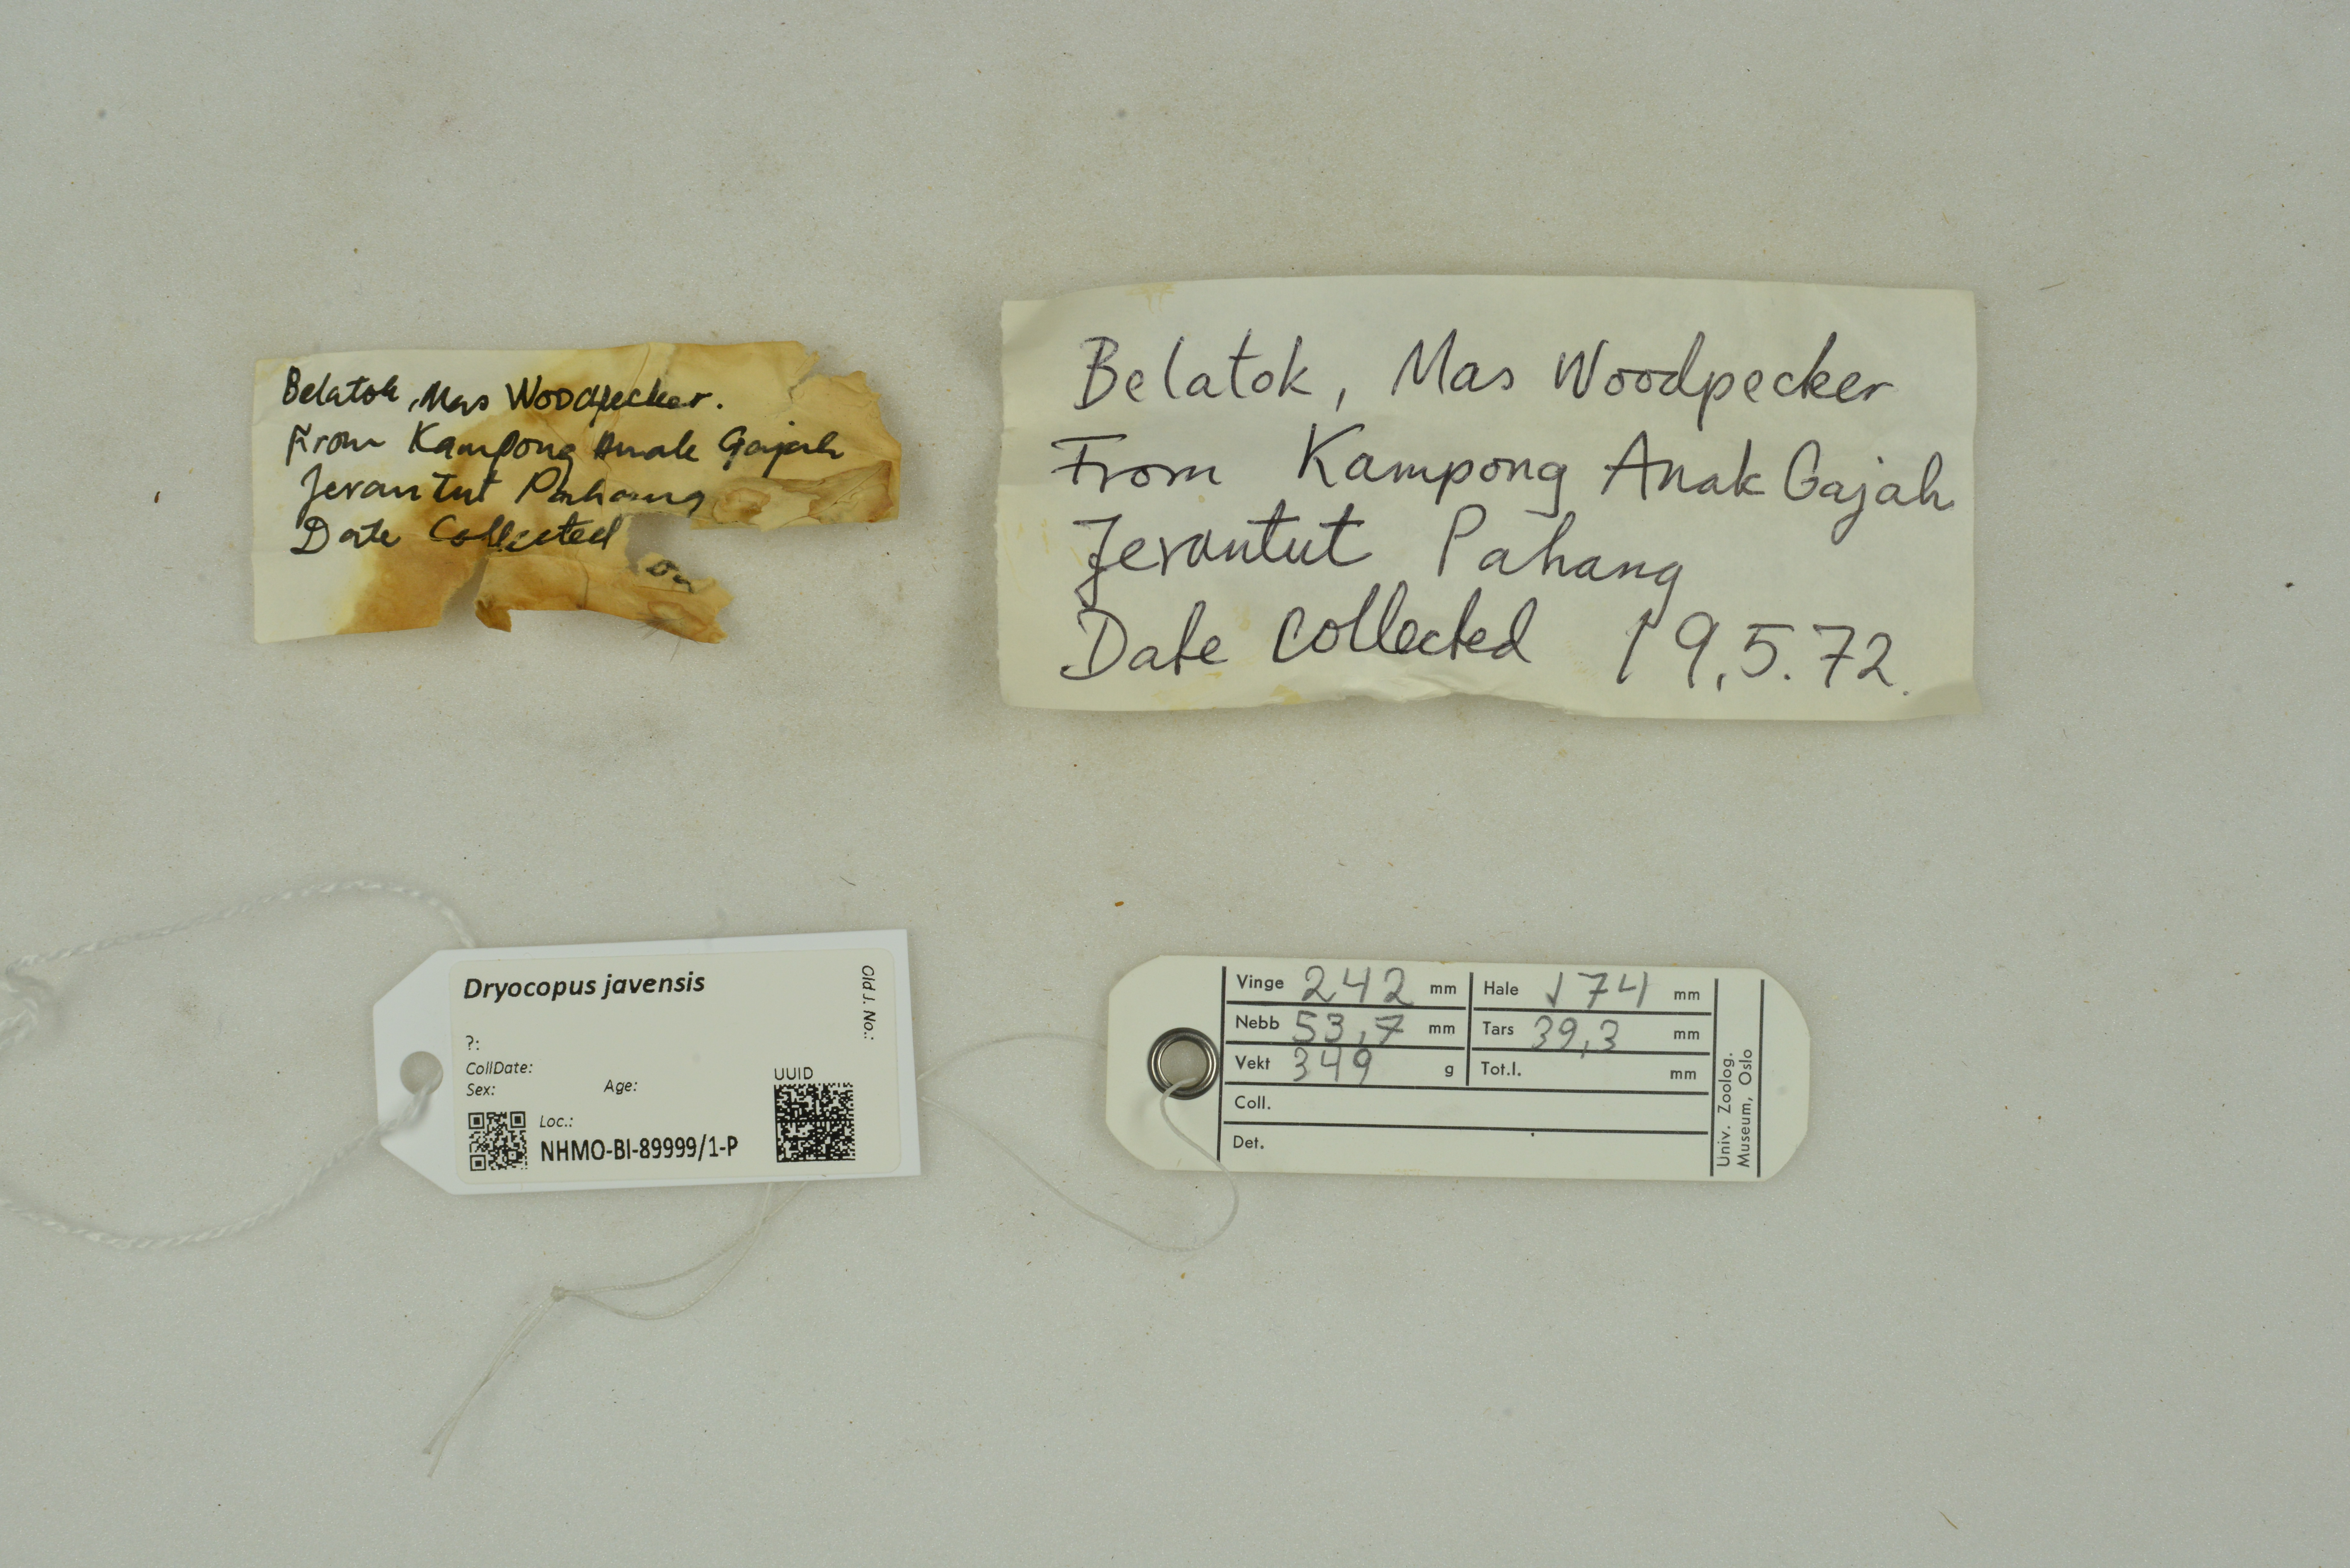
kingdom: Animalia
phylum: Chordata
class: Aves
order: Piciformes
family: Picidae
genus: Dryocopus
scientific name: Dryocopus javensis
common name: White-bellied woodpecker
